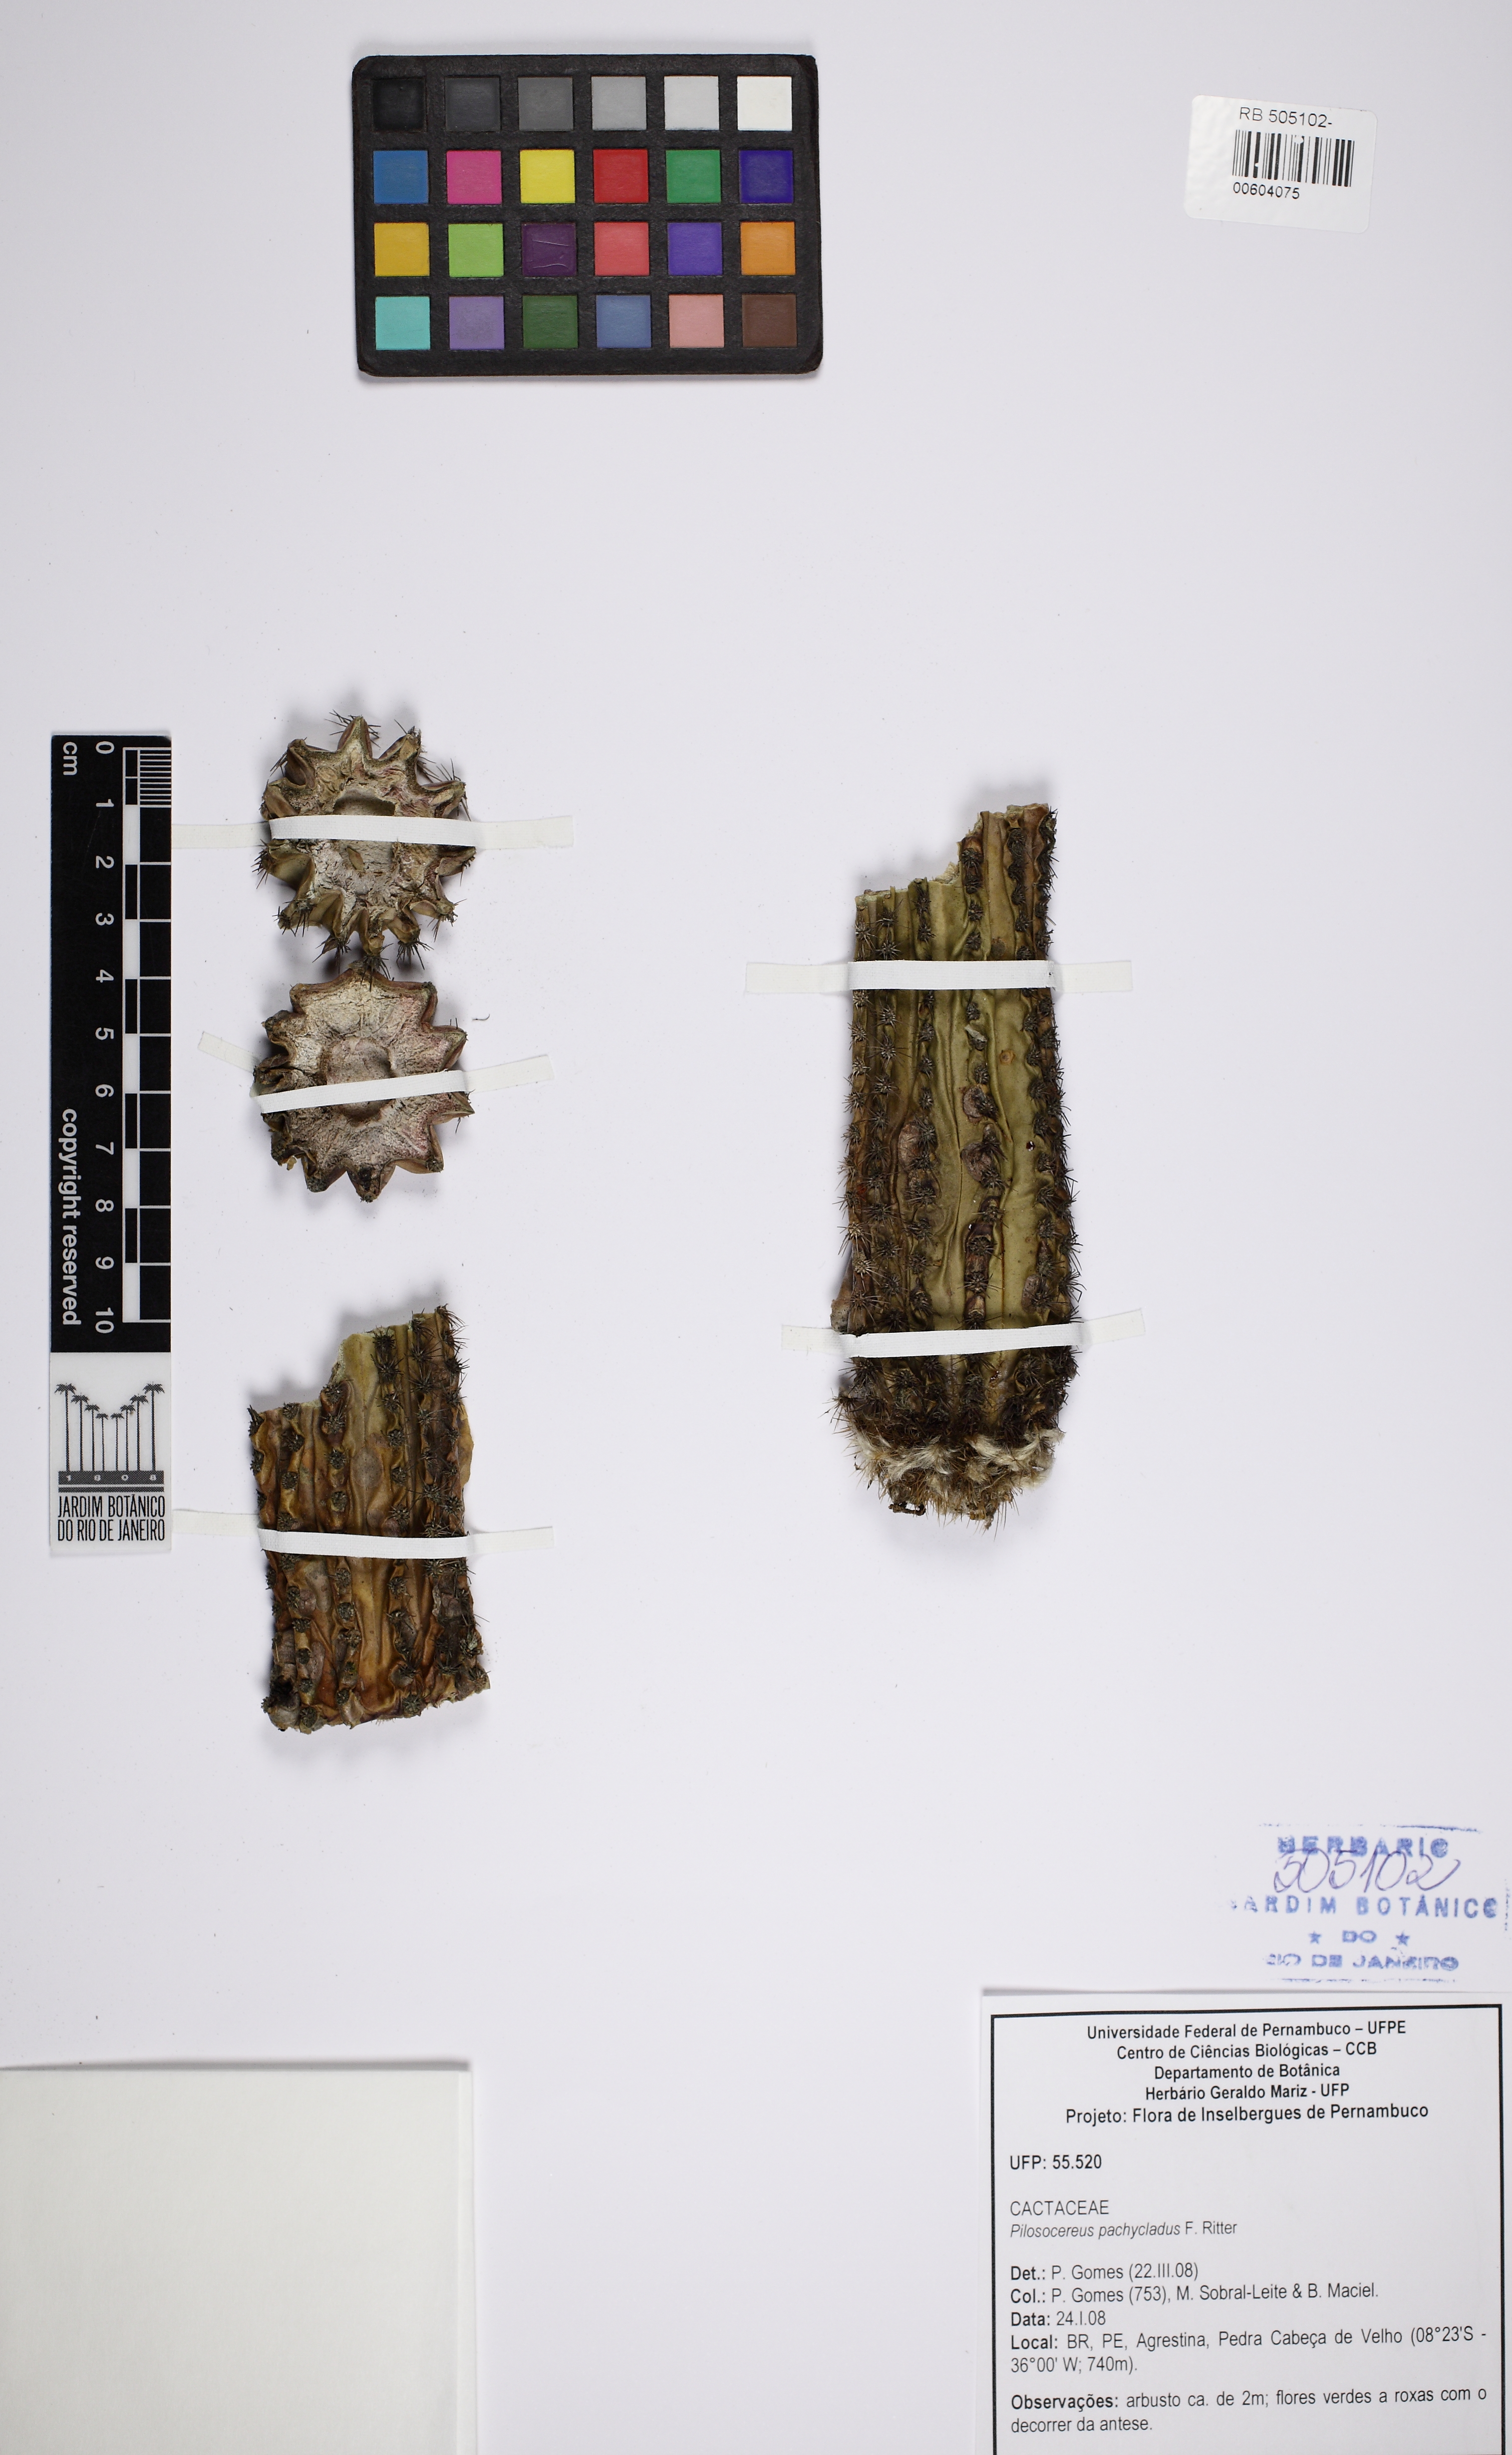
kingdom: Plantae
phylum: Tracheophyta
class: Magnoliopsida
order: Caryophyllales
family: Cactaceae
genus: Pilosocereus
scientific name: Pilosocereus pachycladus
